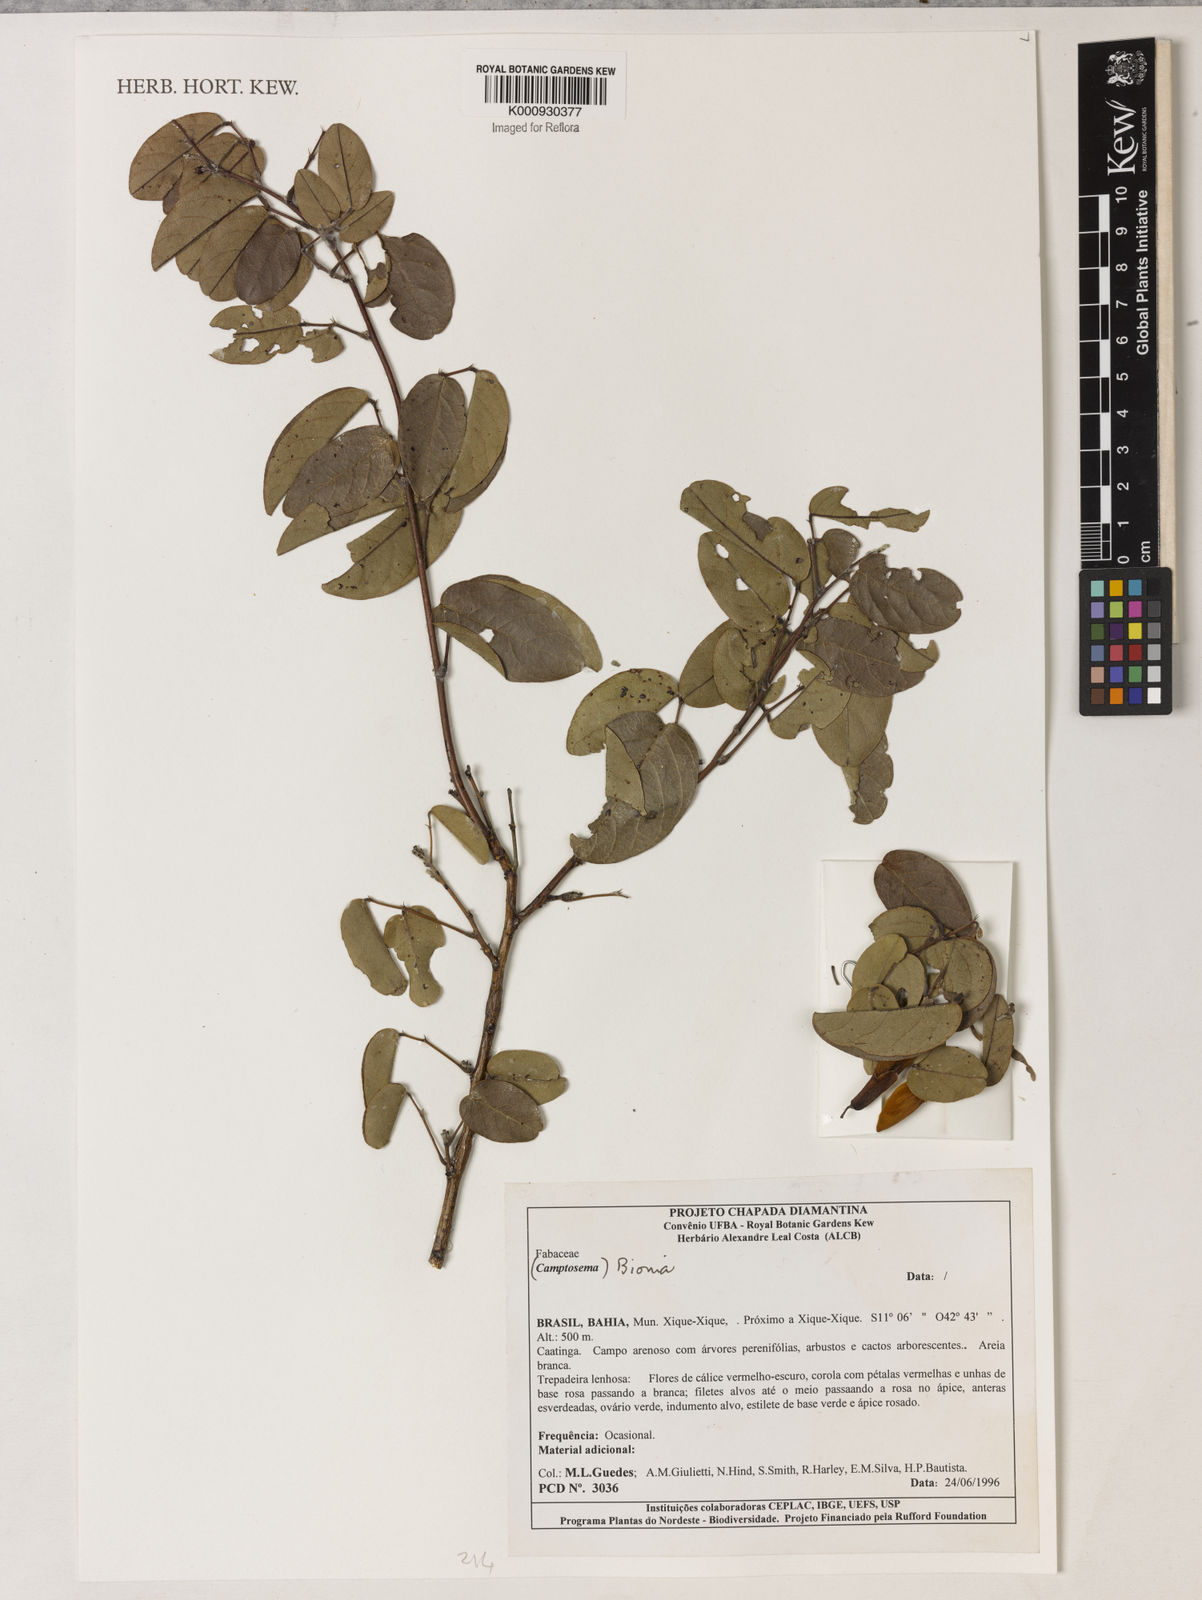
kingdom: Plantae
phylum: Tracheophyta
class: Magnoliopsida
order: Fabales
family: Fabaceae
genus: Camptosema
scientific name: Camptosema
